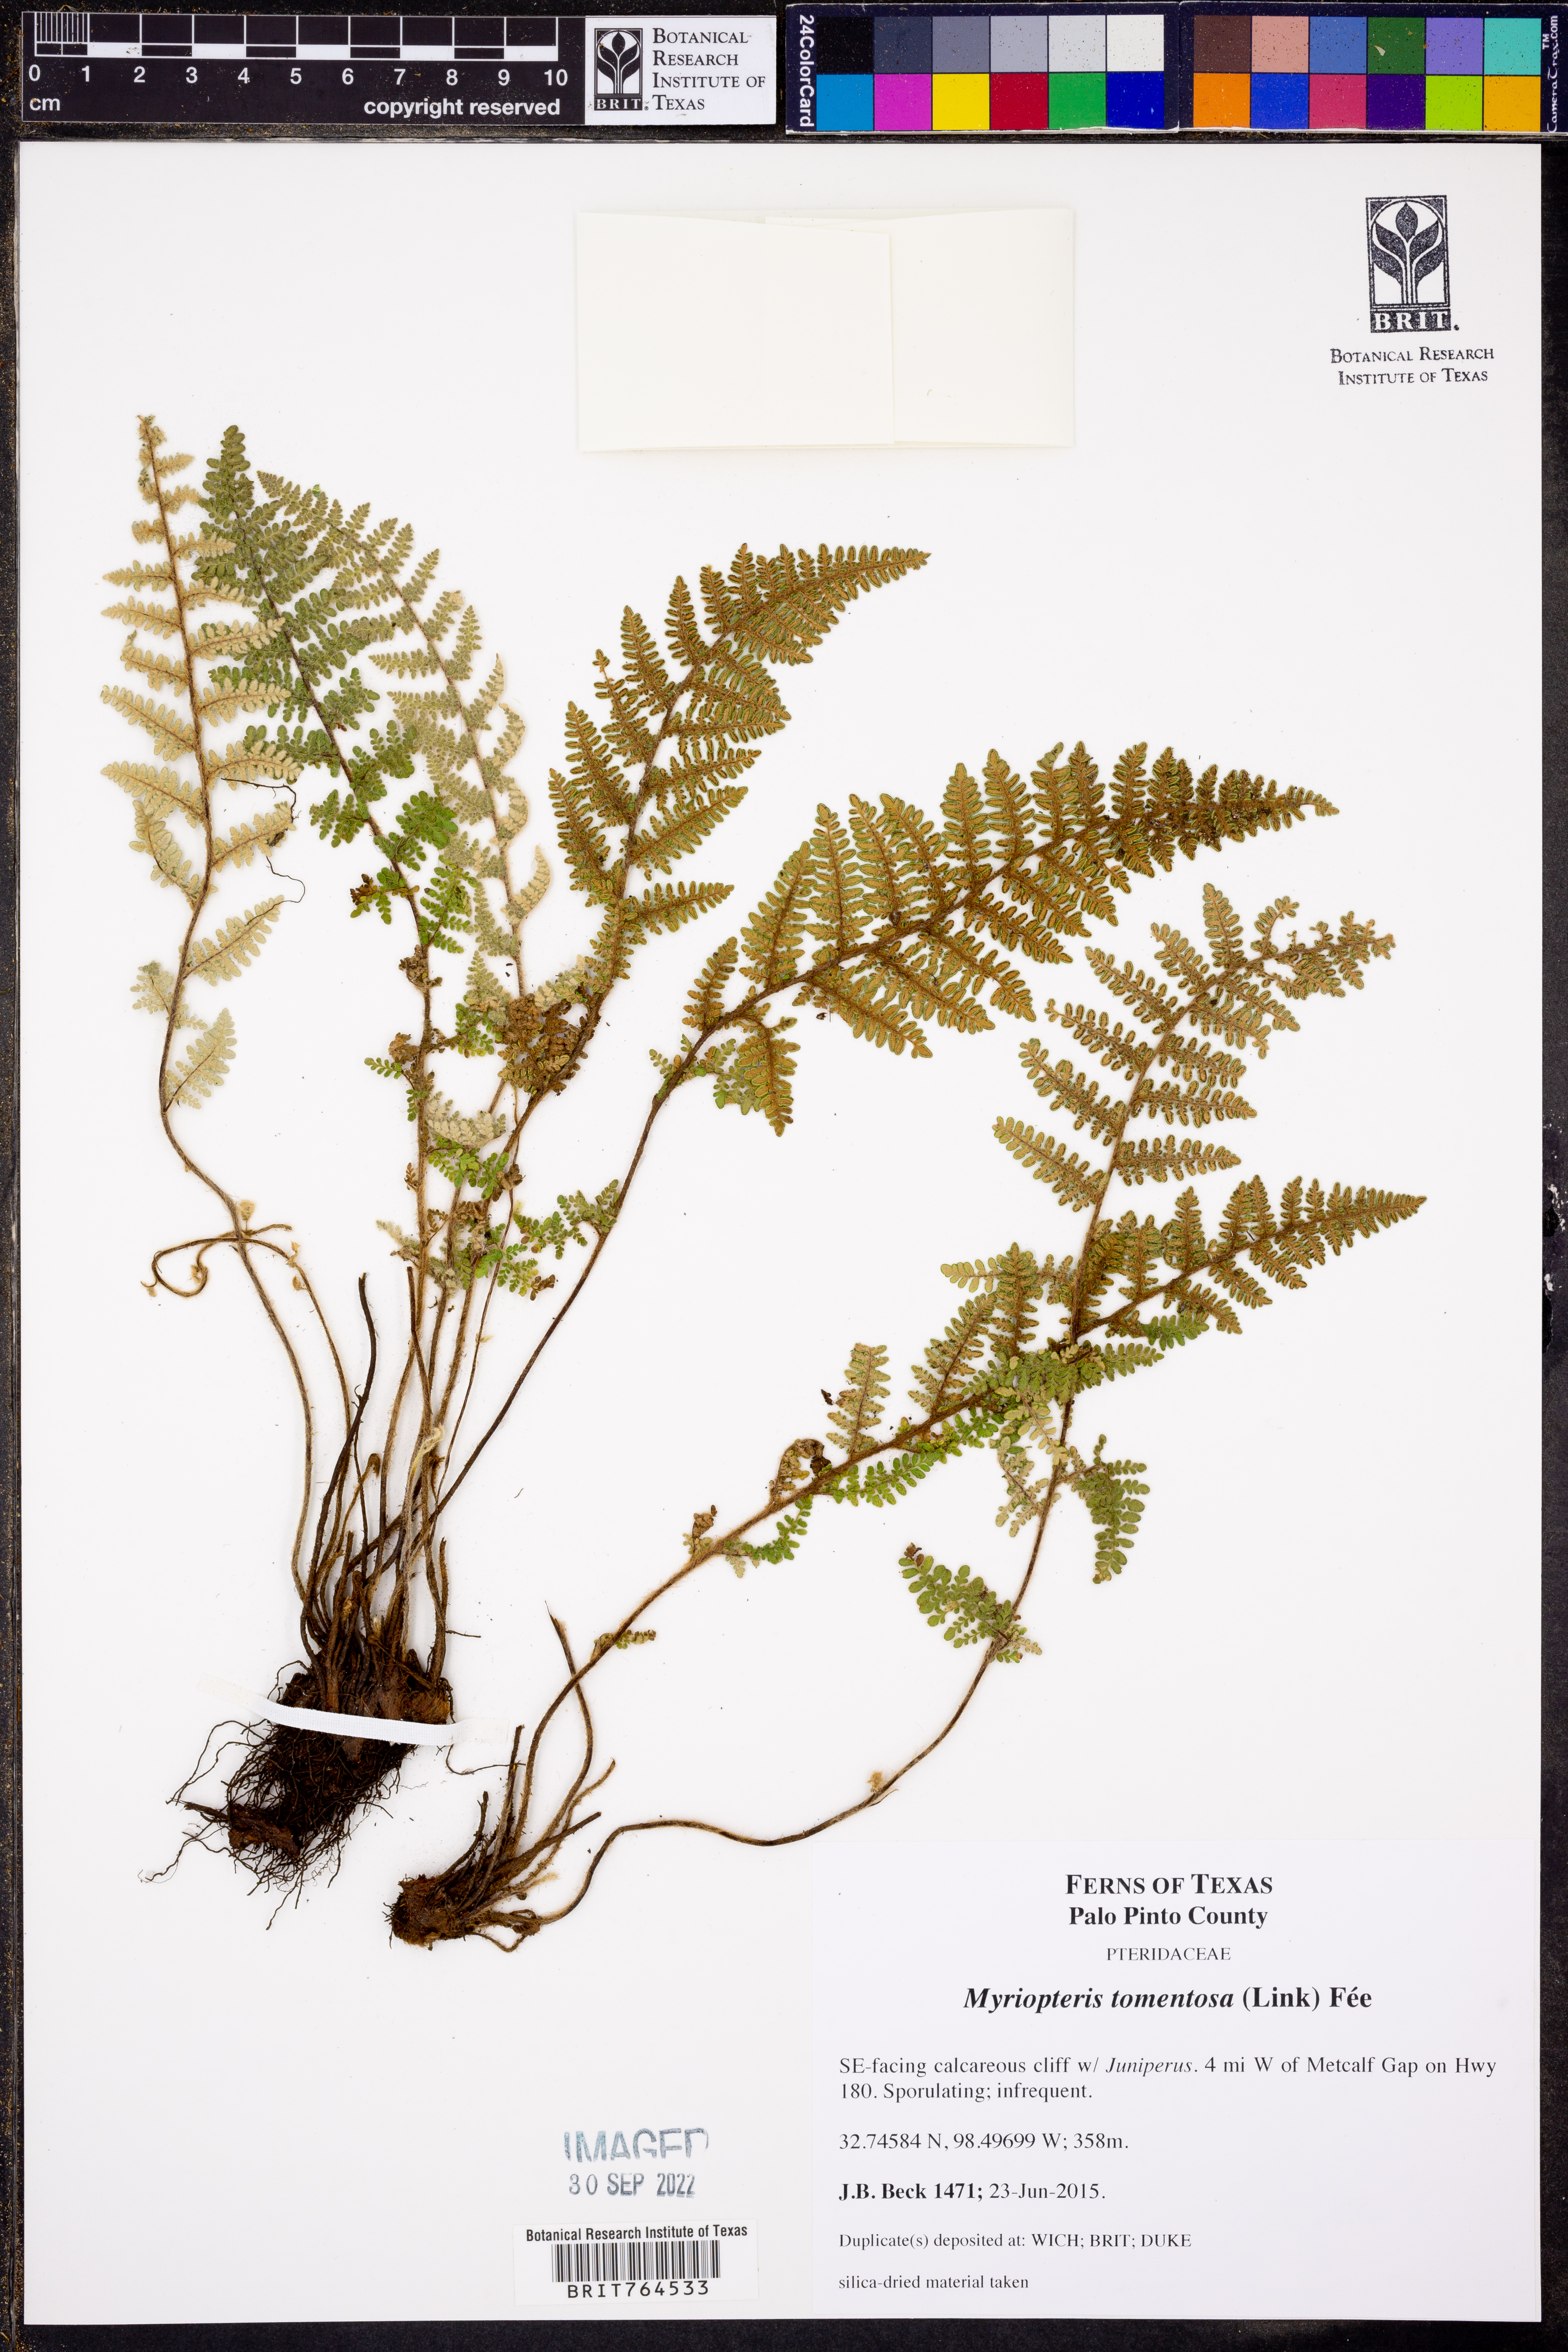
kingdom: Plantae
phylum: Tracheophyta
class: Polypodiopsida
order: Polypodiales
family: Pteridaceae
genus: Myriopteris
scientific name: Myriopteris tomentosa
